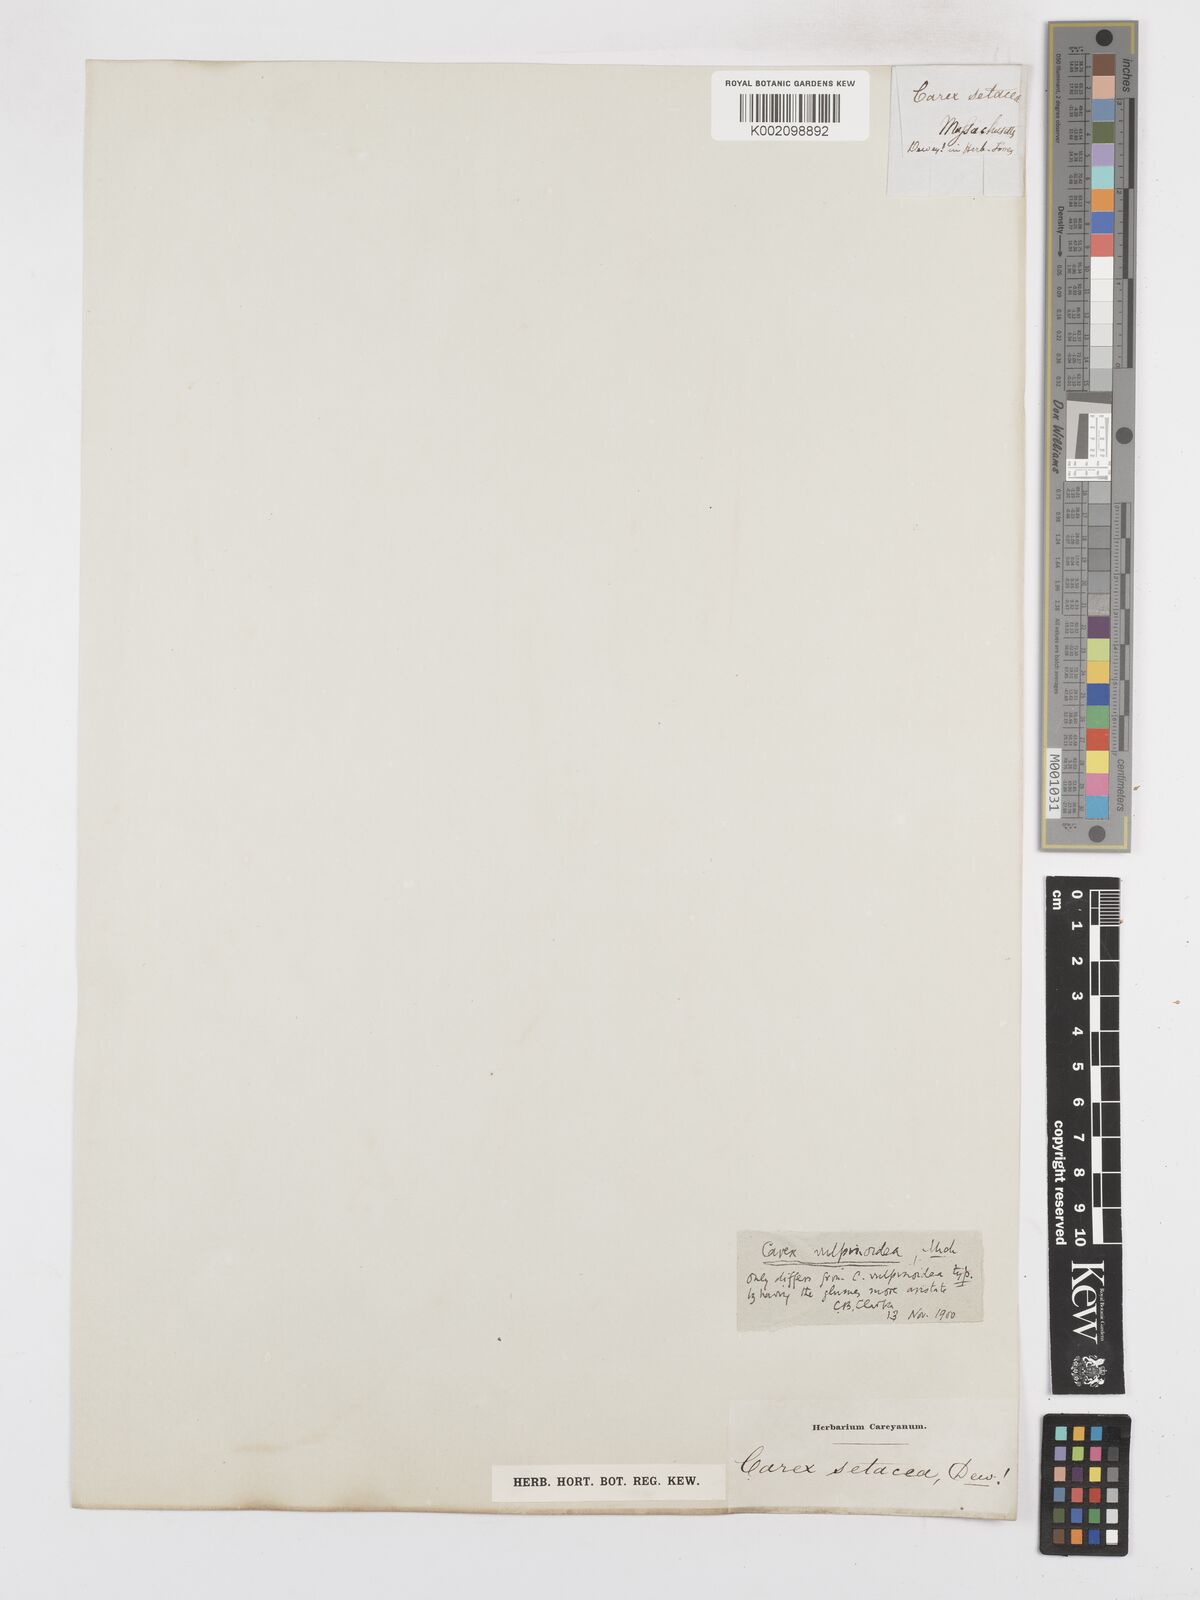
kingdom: Plantae
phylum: Tracheophyta
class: Liliopsida
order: Poales
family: Cyperaceae
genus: Carex
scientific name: Carex vulpinoidea
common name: American fox-sedge
